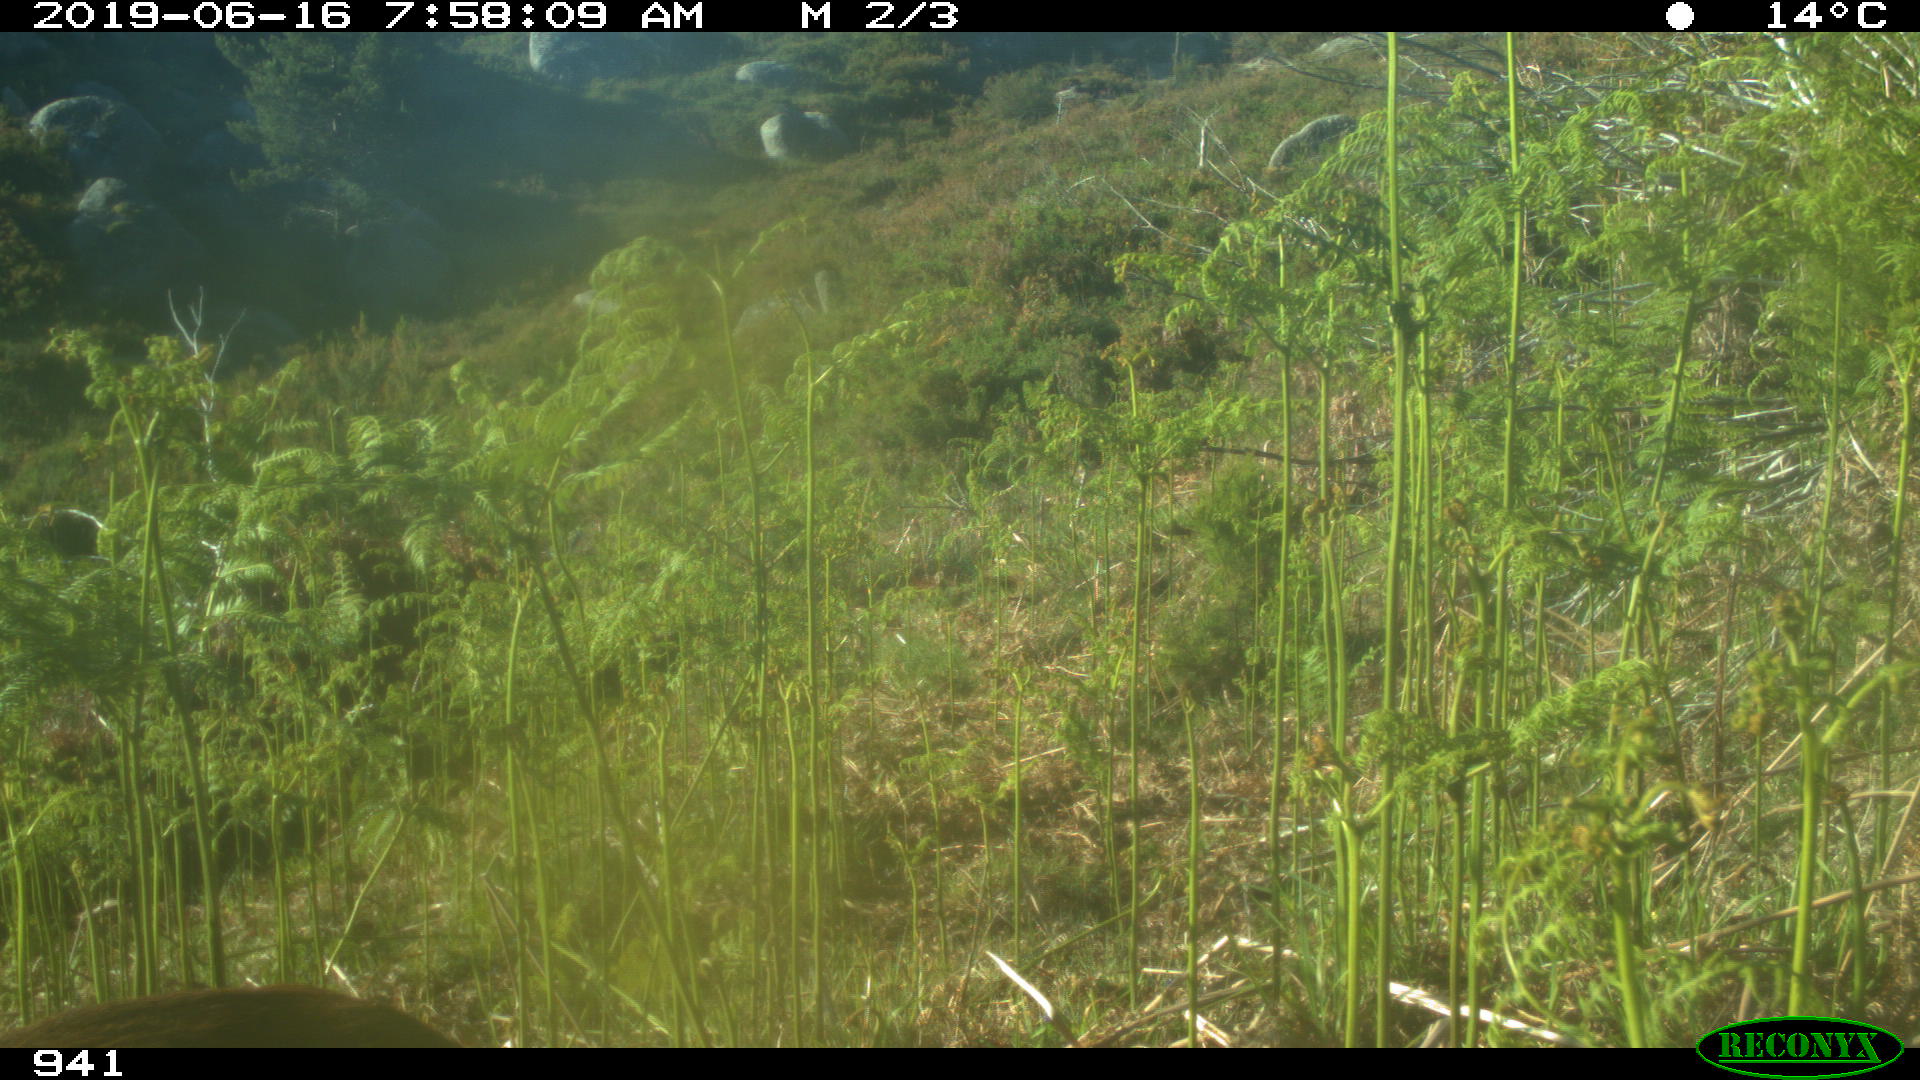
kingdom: Animalia
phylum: Chordata
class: Mammalia
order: Artiodactyla
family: Cervidae
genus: Capreolus
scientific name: Capreolus capreolus
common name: Western roe deer
